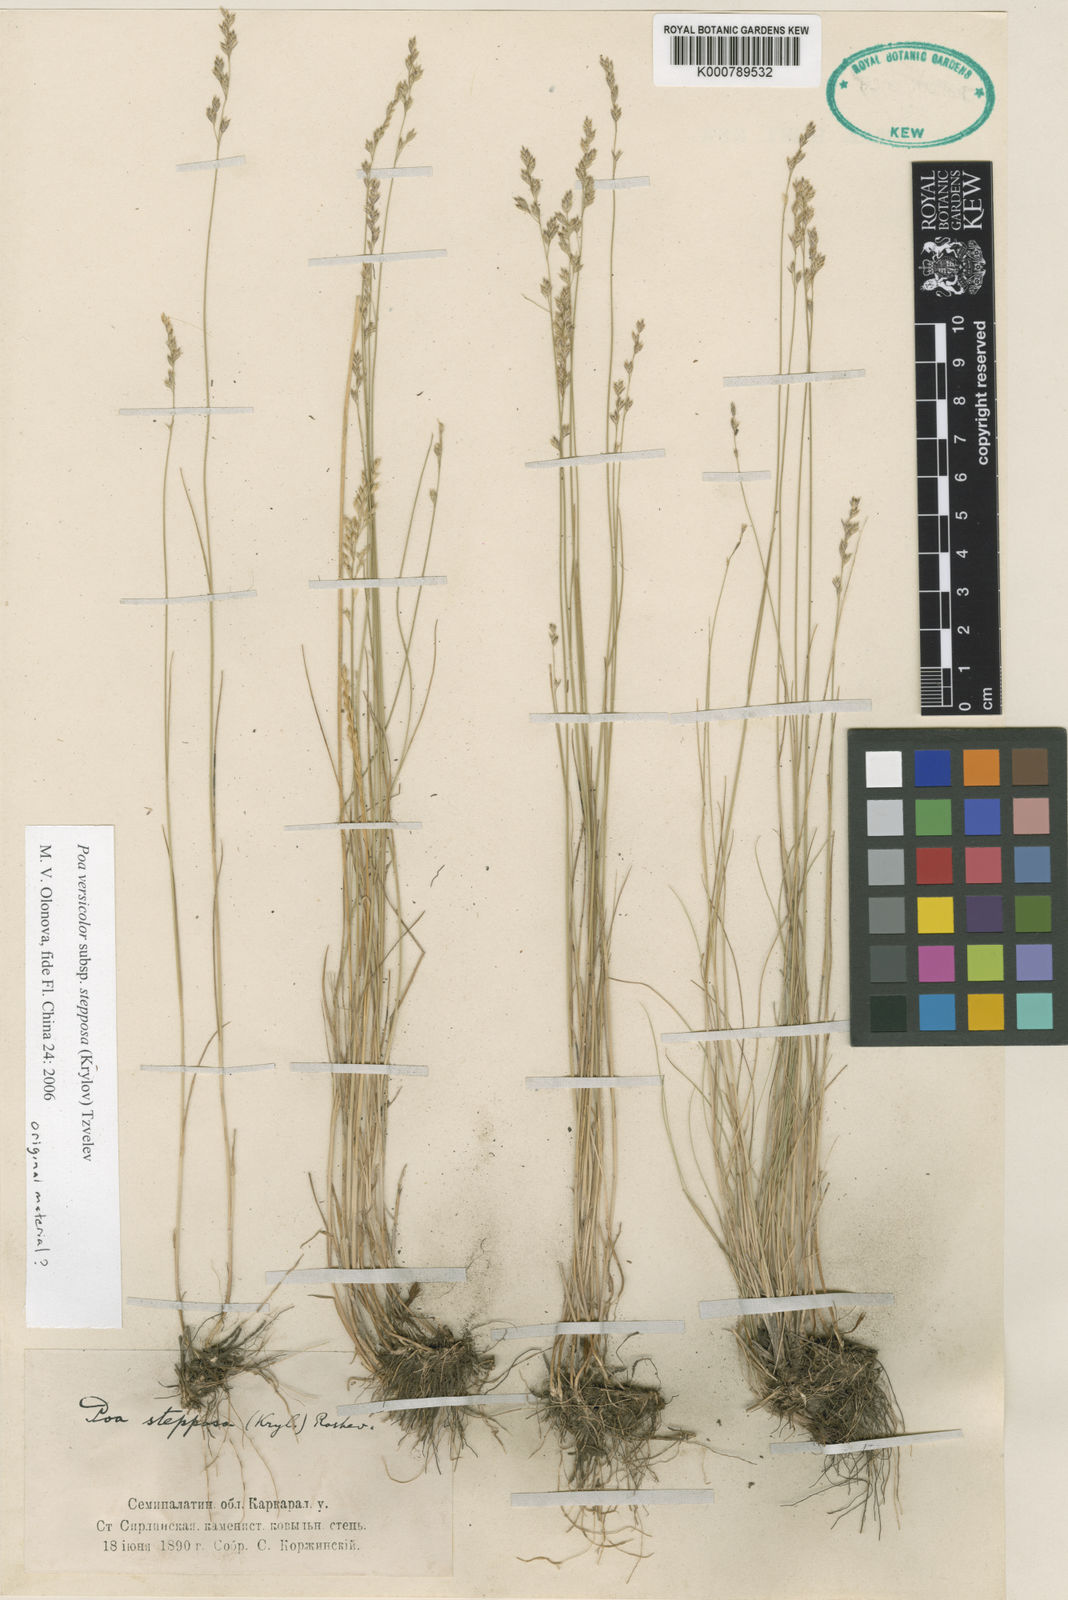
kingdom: Plantae
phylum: Tracheophyta
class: Liliopsida
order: Poales
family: Poaceae
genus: Poa
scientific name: Poa versicolor
